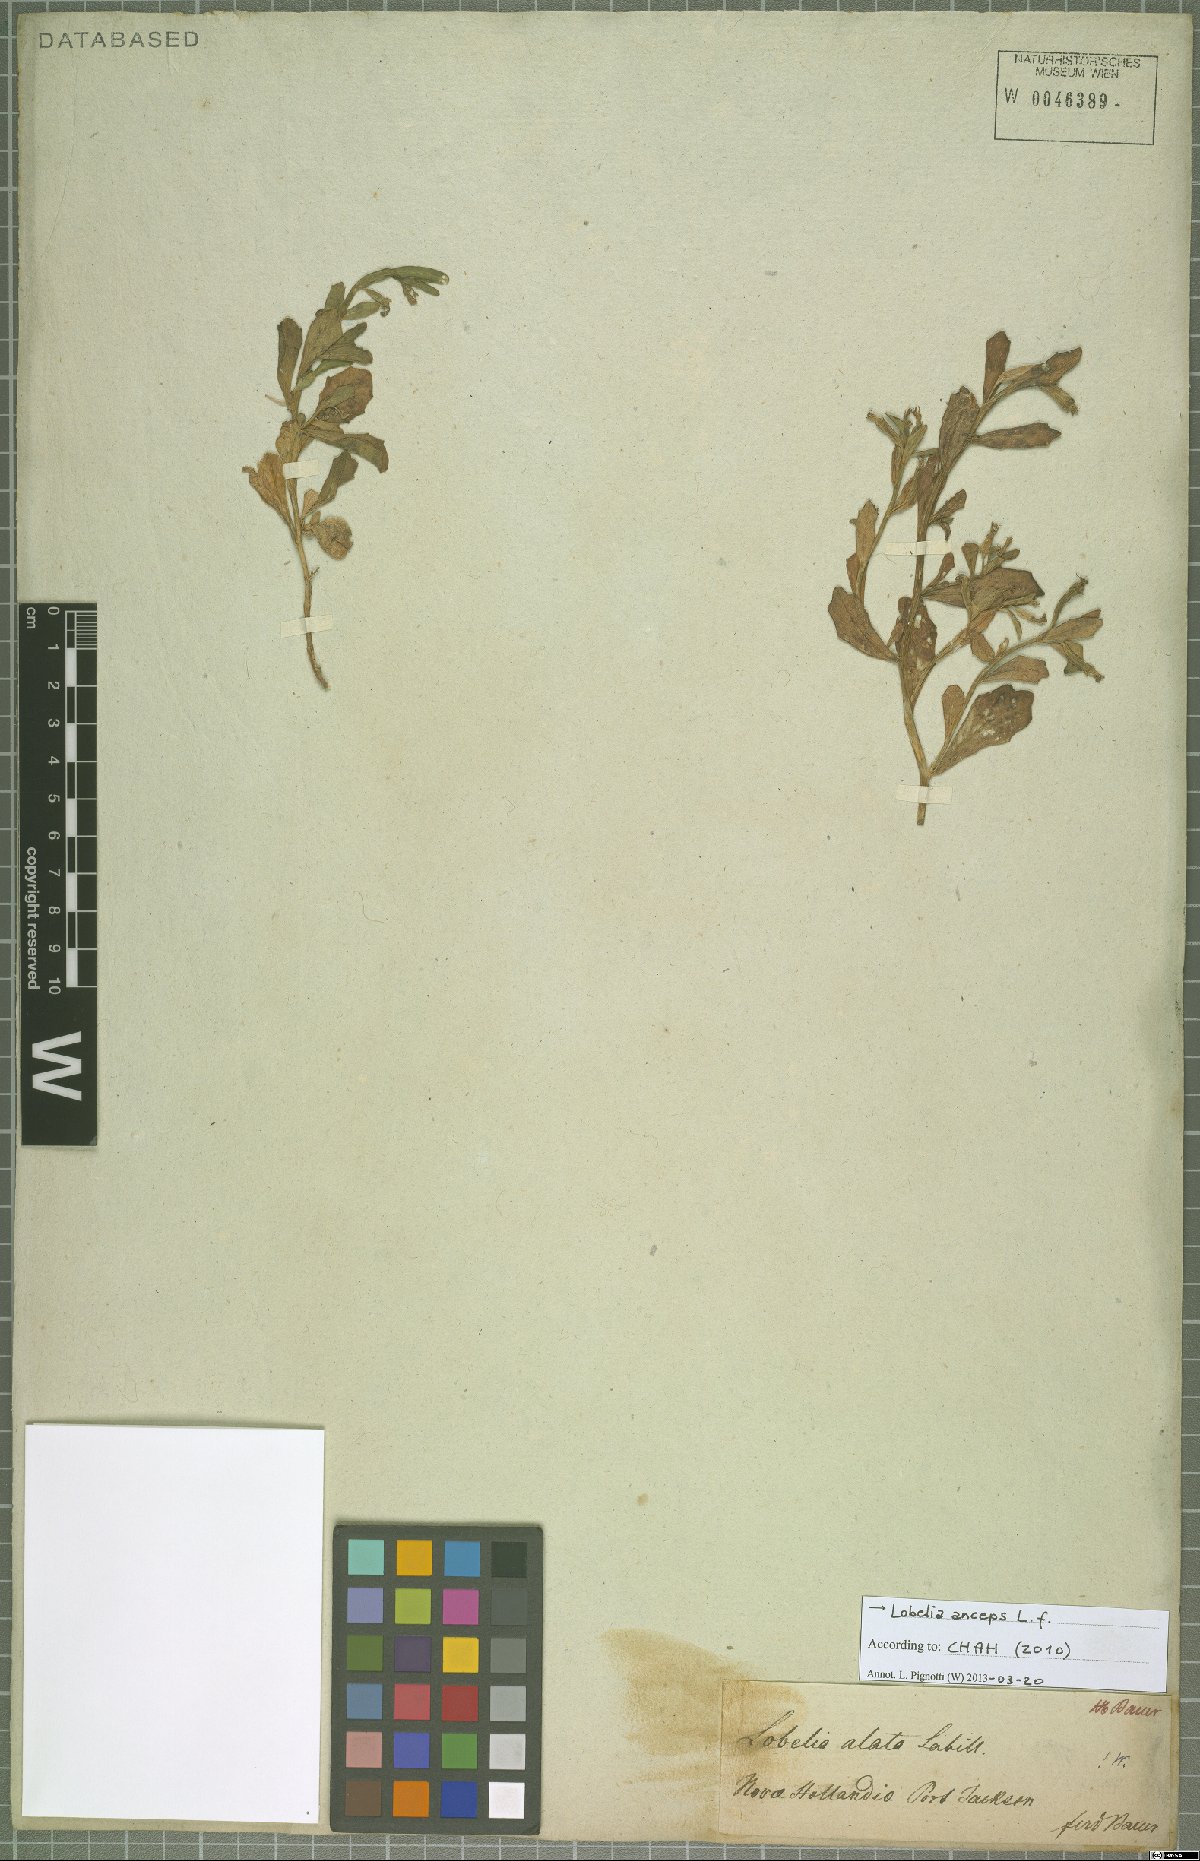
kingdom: Plantae
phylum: Tracheophyta
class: Magnoliopsida
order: Asterales
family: Campanulaceae
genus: Lobelia
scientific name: Lobelia anceps
